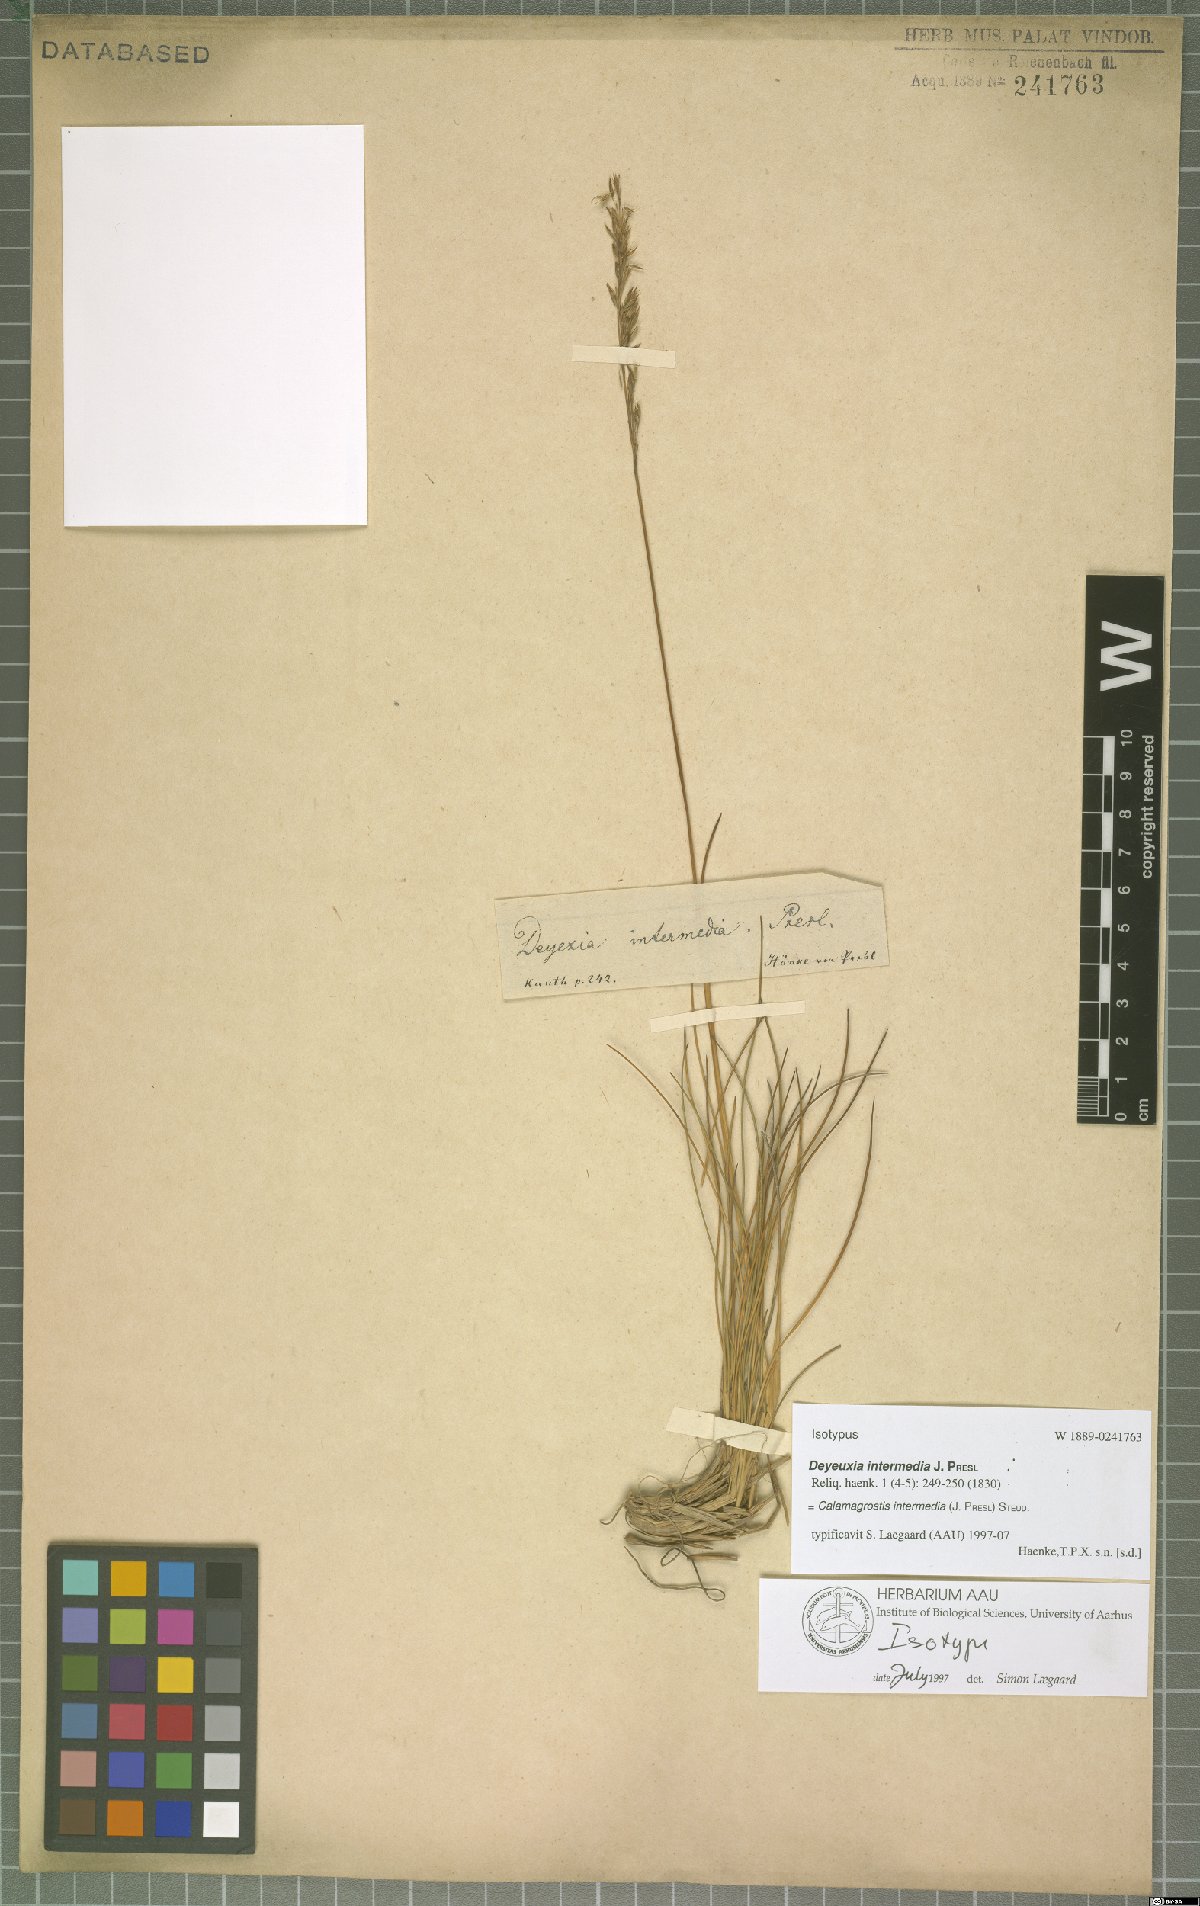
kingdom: Plantae
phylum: Tracheophyta
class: Liliopsida
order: Poales
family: Poaceae
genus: Cinnagrostis
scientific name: Cinnagrostis intermedia
